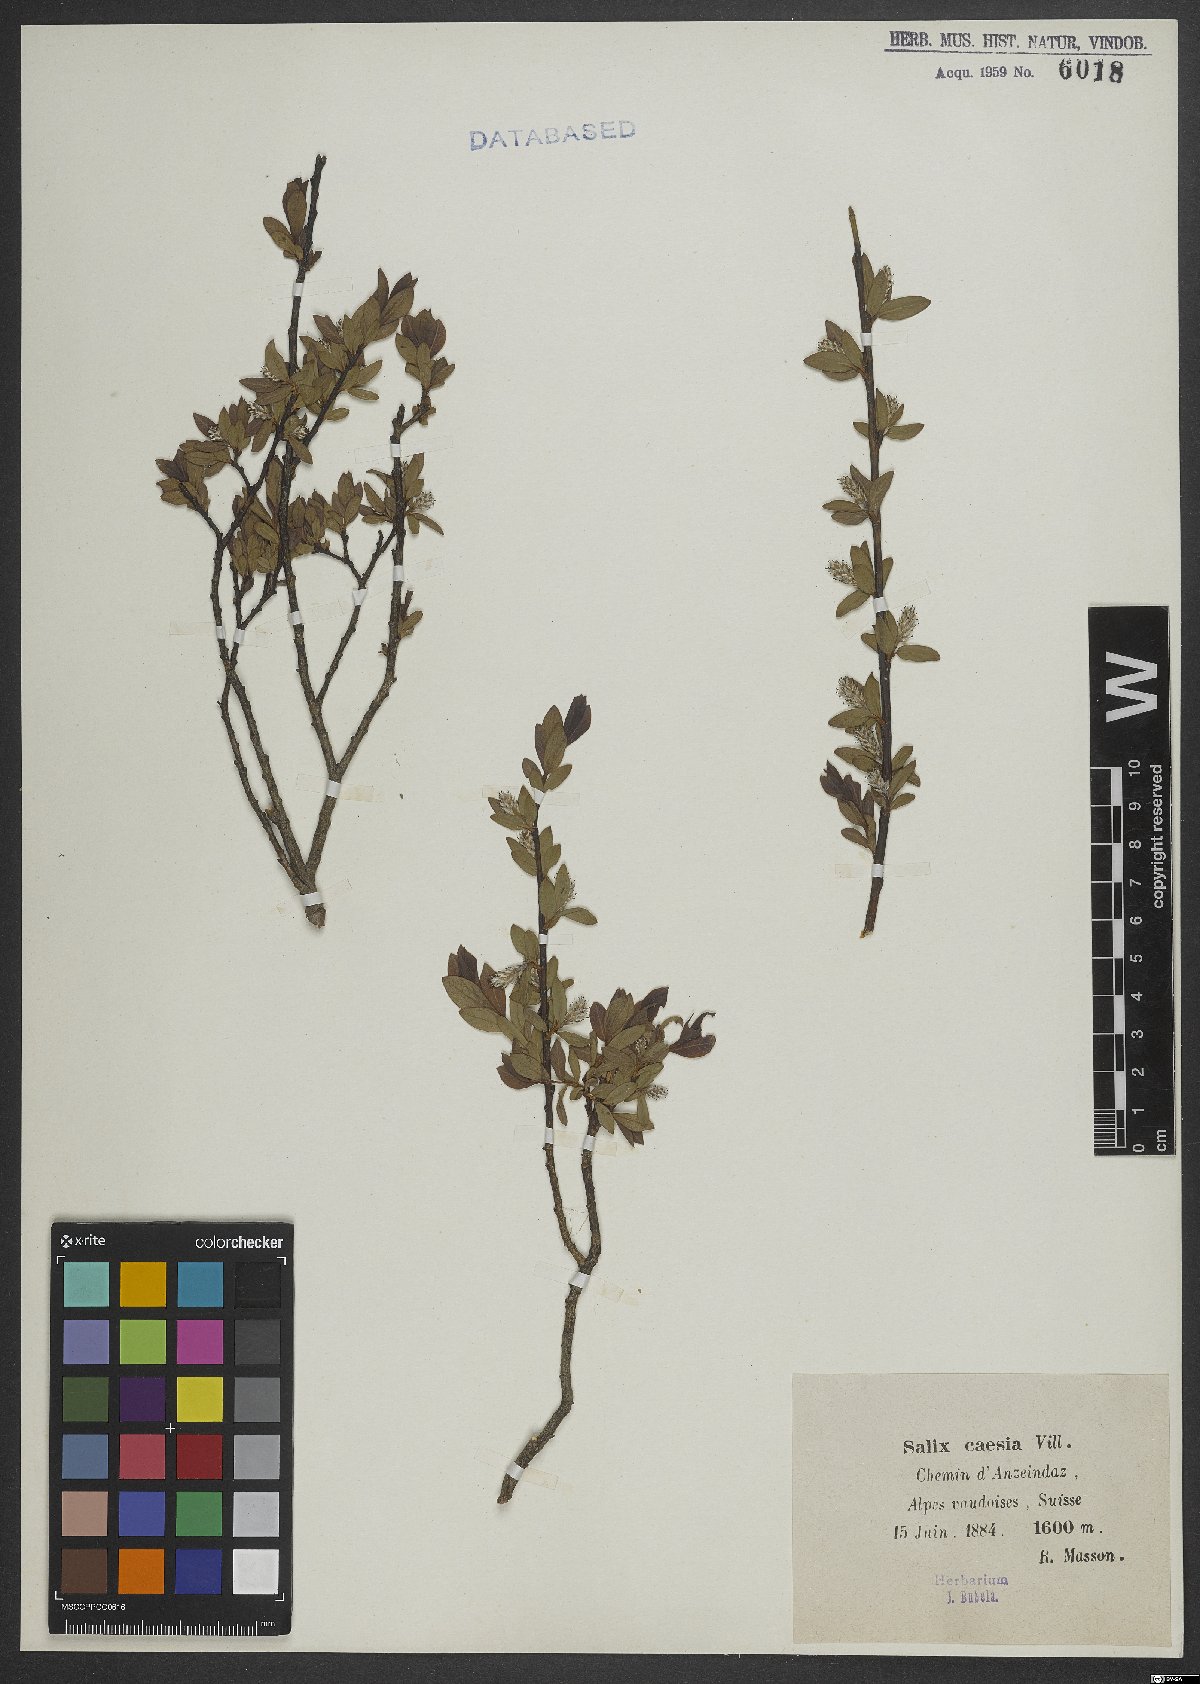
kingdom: Plantae
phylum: Tracheophyta
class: Magnoliopsida
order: Malpighiales
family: Salicaceae
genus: Salix
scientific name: Salix caesia
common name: Blue willow
